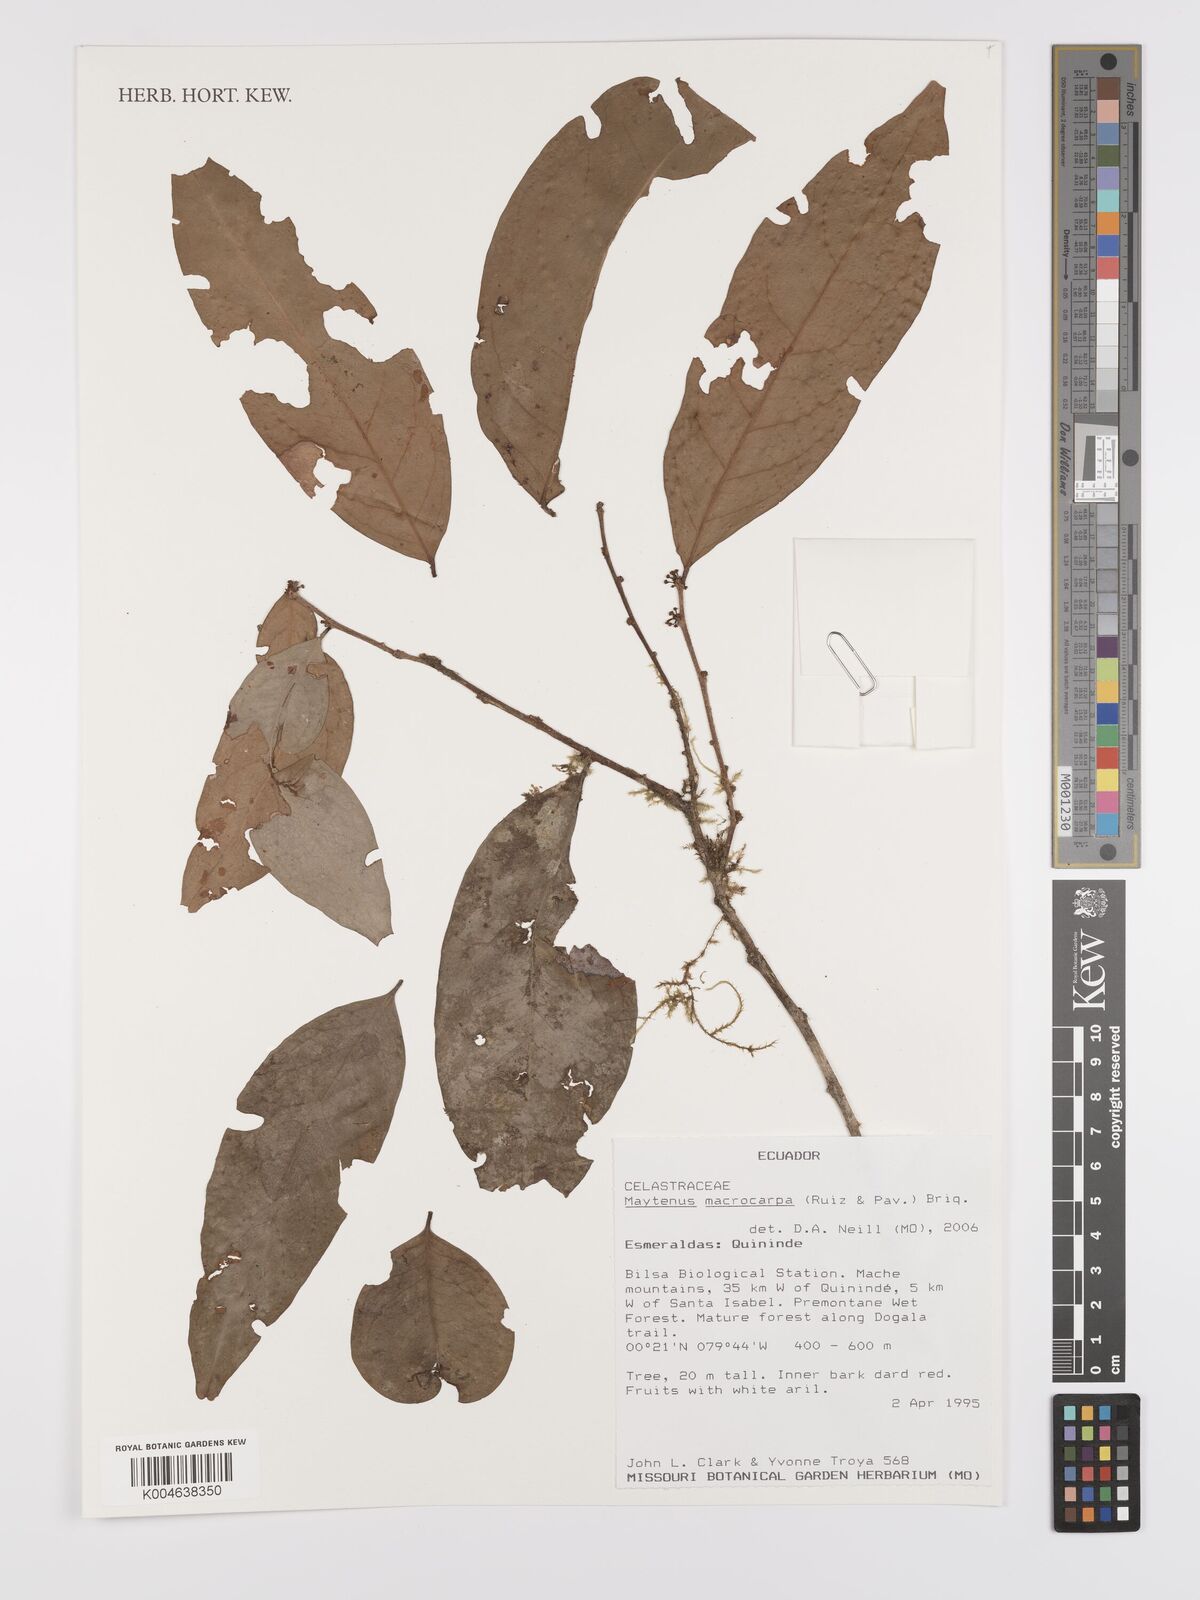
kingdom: Plantae
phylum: Tracheophyta
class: Magnoliopsida
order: Celastrales
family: Celastraceae
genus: Monteverdia
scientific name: Monteverdia macrocarpa
